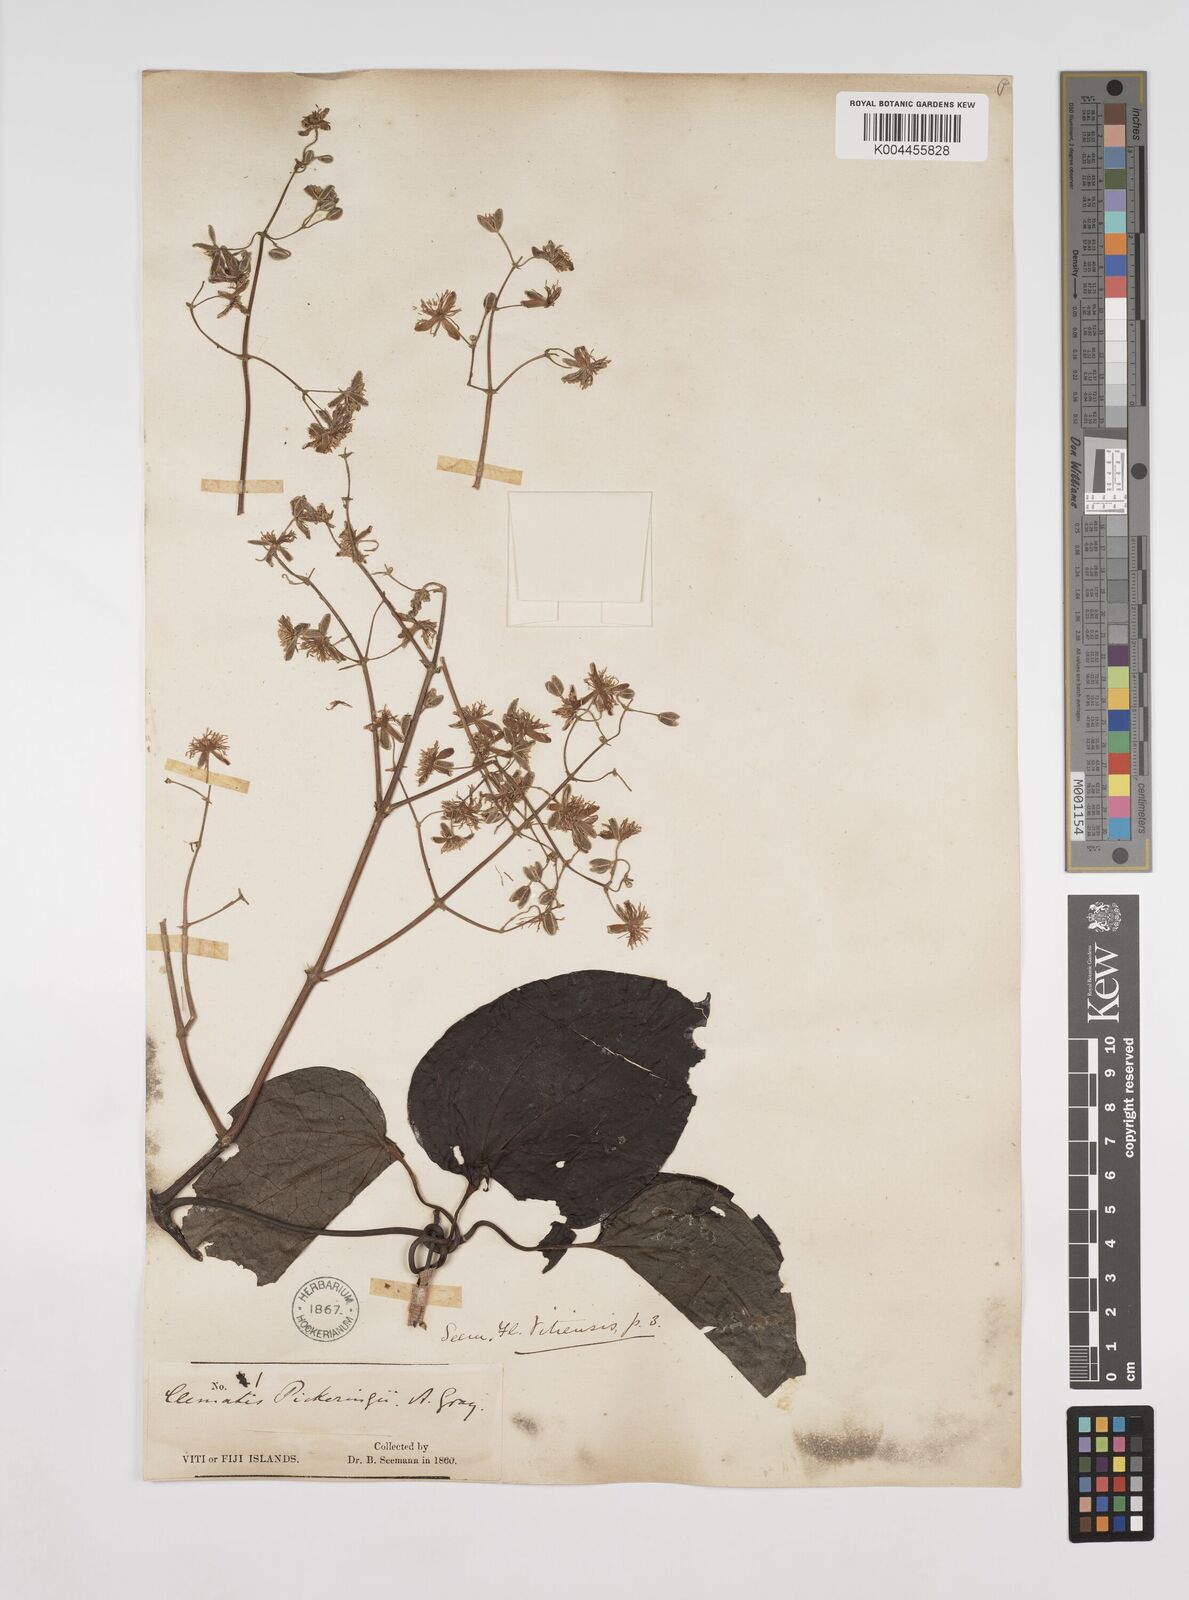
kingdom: Plantae
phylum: Tracheophyta
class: Magnoliopsida
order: Ranunculales
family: Ranunculaceae
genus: Clematis
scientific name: Clematis pickeringii
